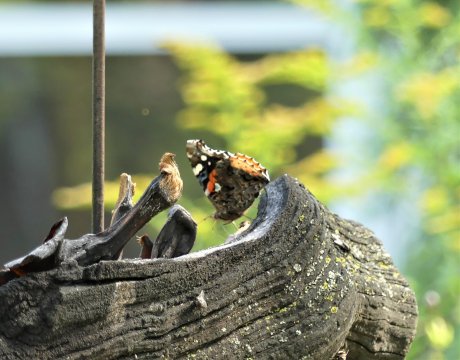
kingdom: Animalia
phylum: Arthropoda
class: Insecta
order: Lepidoptera
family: Nymphalidae
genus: Vanessa
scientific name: Vanessa atalanta
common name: Red Admiral
